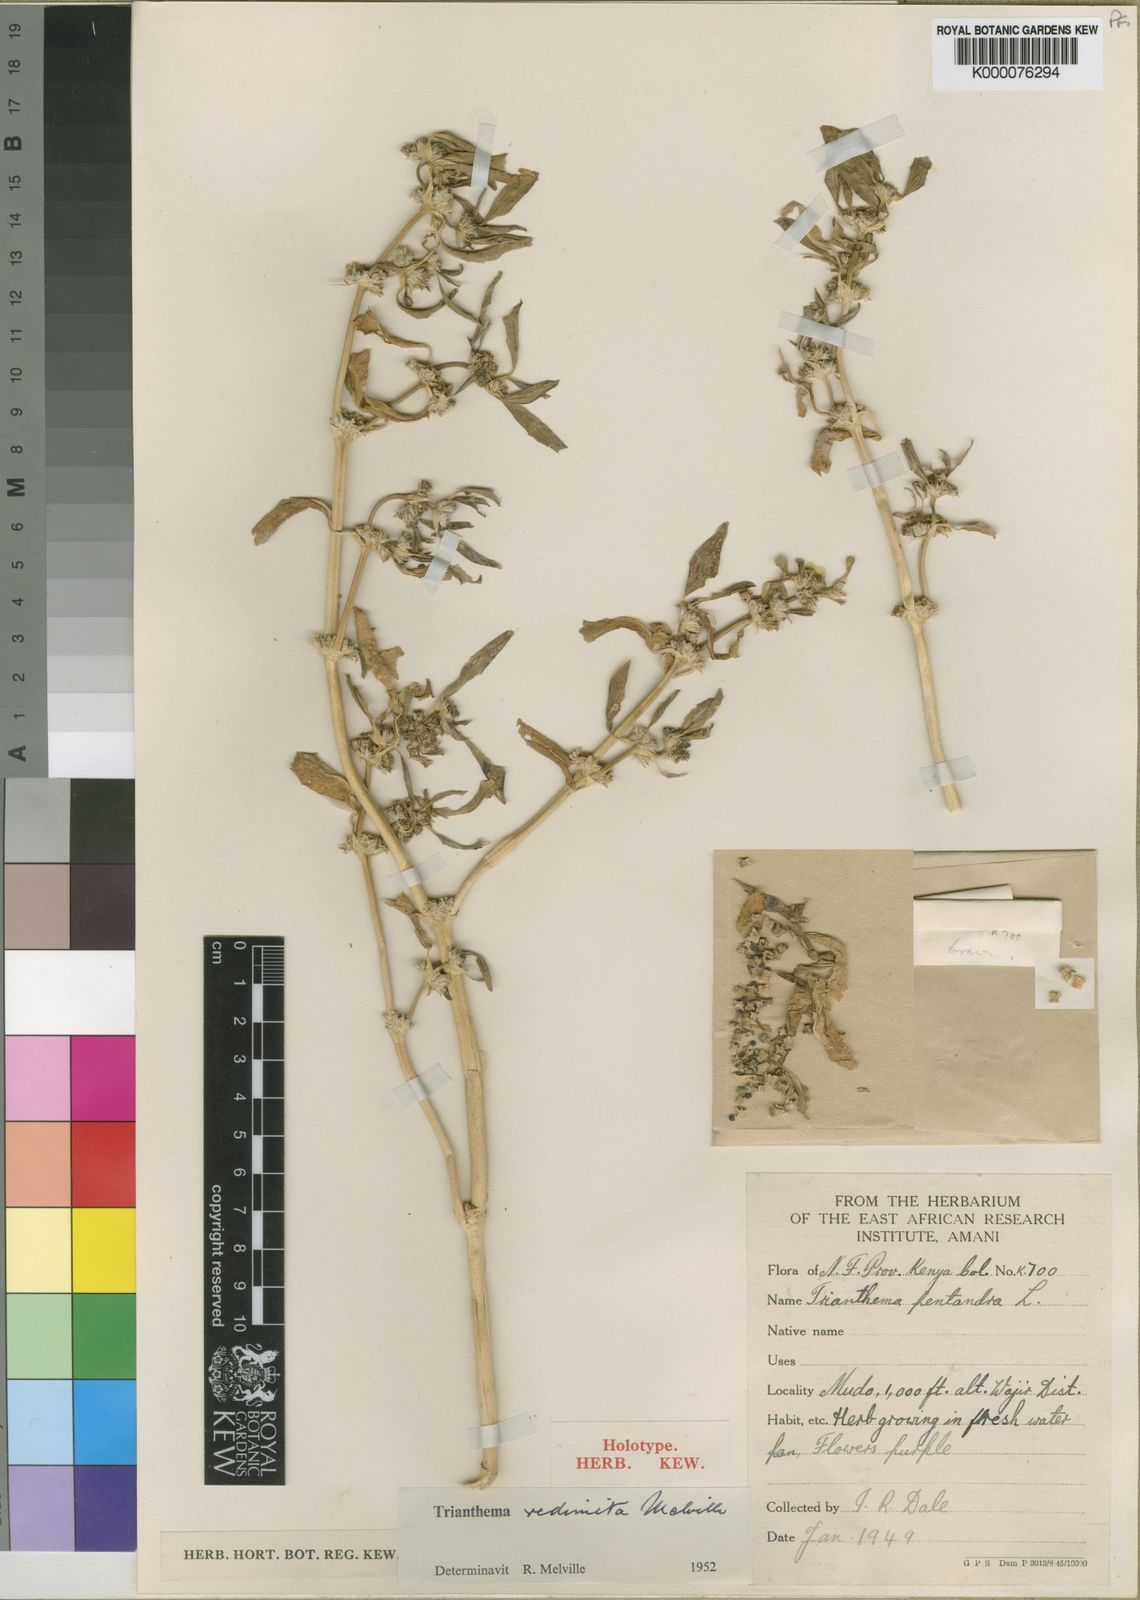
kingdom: Plantae
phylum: Tracheophyta
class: Magnoliopsida
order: Caryophyllales
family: Aizoaceae
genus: Zaleya
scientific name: Zaleya pentandra
